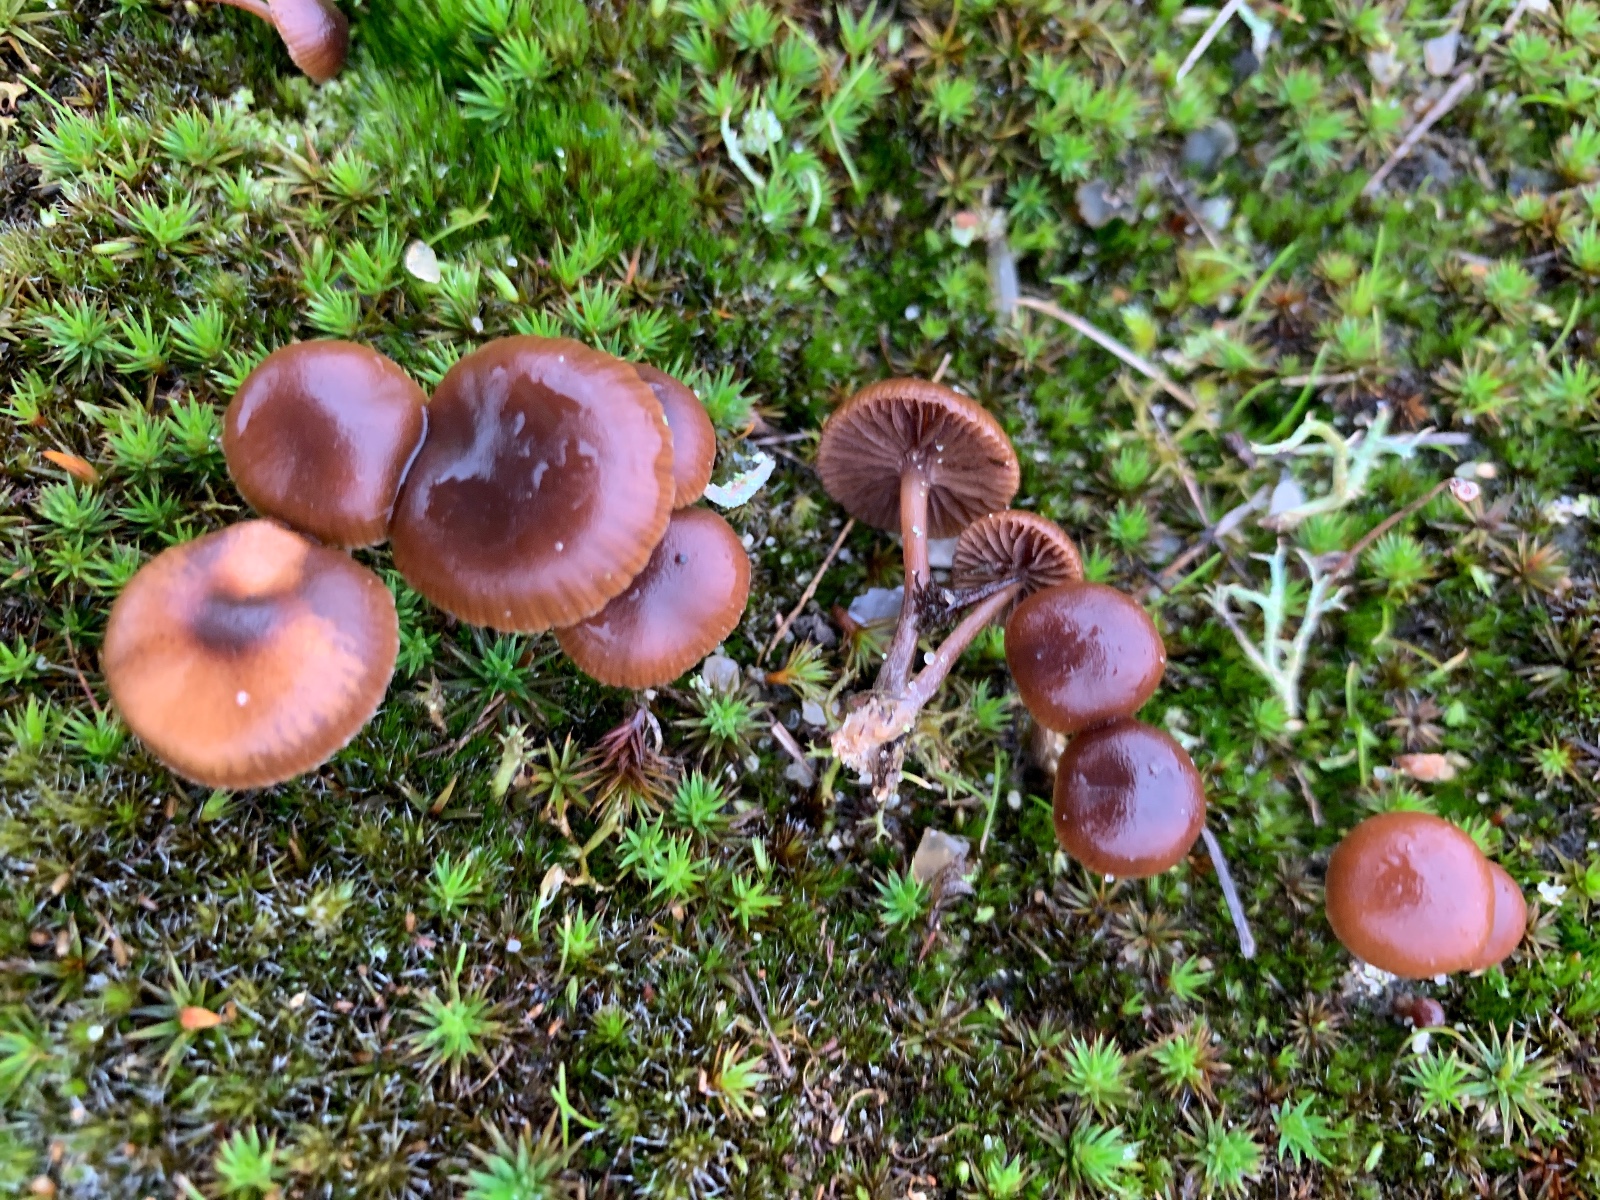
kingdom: Fungi
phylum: Basidiomycota
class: Agaricomycetes
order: Agaricales
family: Strophariaceae
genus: Deconica
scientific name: Deconica montana
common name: rødbrun stråhat
